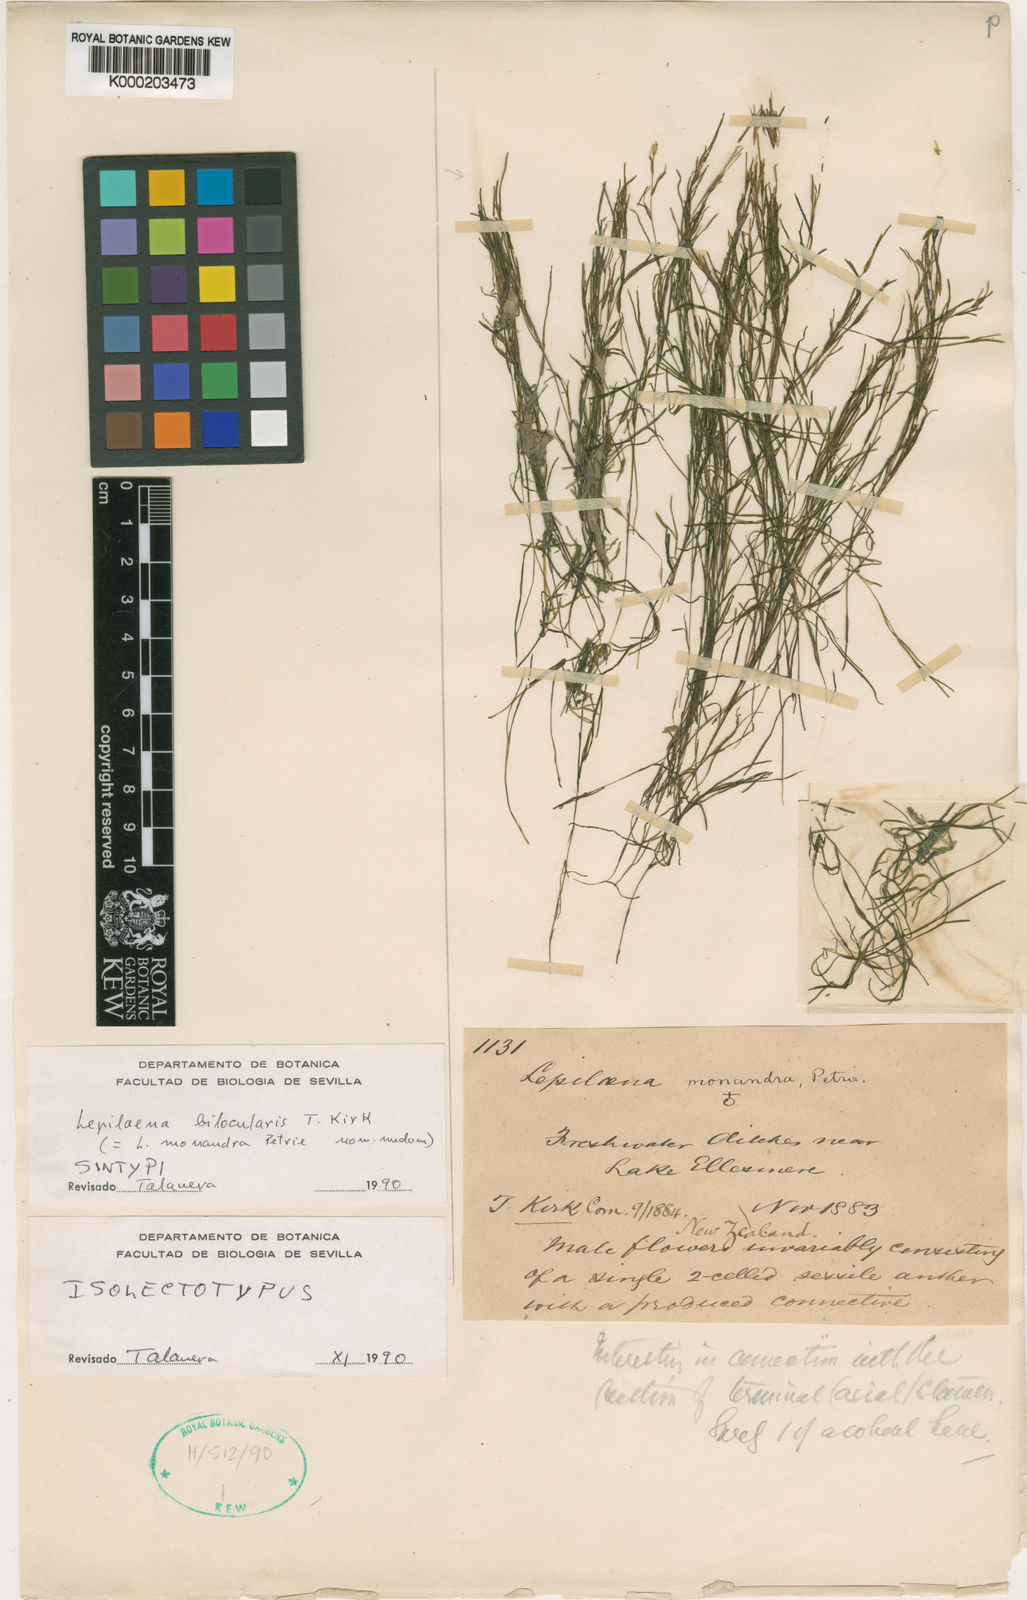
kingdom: Plantae
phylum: Tracheophyta
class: Liliopsida
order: Alismatales
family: Potamogetonaceae
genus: Althenia
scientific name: Althenia bilocularis
